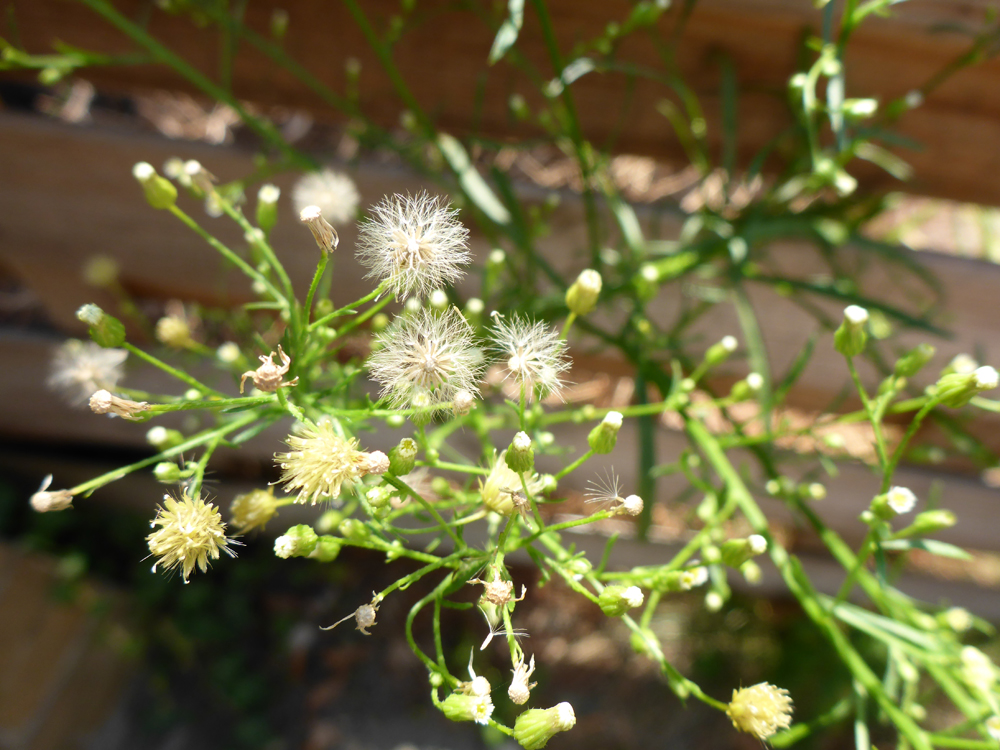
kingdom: Plantae
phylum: Tracheophyta
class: Magnoliopsida
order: Asterales
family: Asteraceae
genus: Erigeron
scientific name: Erigeron canadensis
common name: Canadian fleabane
